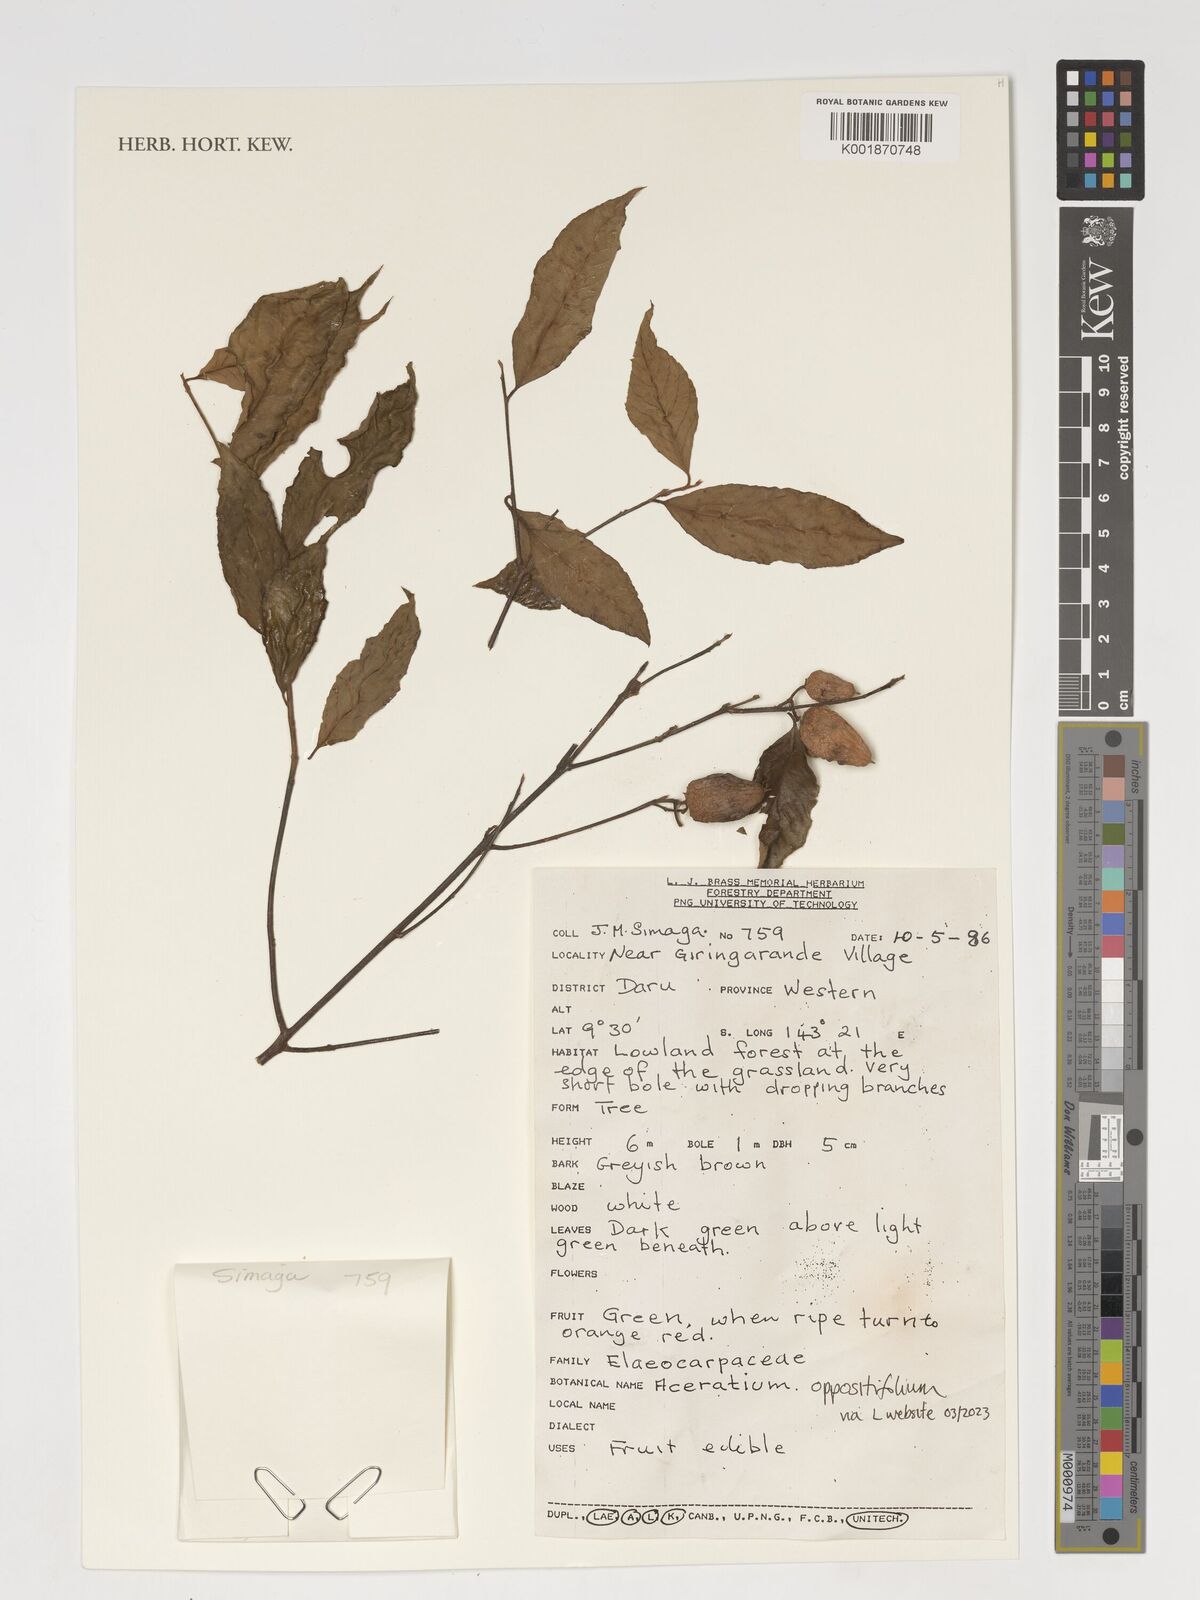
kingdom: Plantae
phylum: Tracheophyta
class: Magnoliopsida
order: Oxalidales
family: Elaeocarpaceae
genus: Aceratium
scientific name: Aceratium oppositifolium
